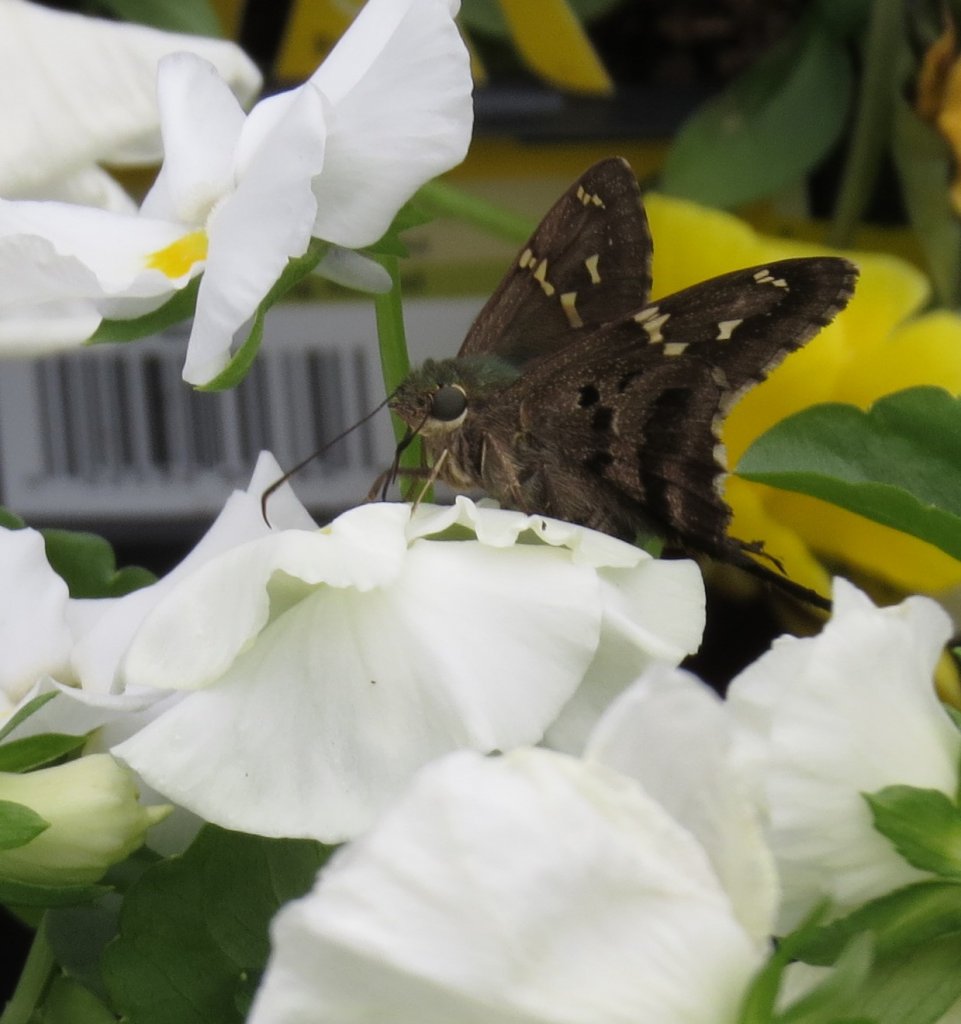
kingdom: Animalia
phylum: Arthropoda
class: Insecta
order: Lepidoptera
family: Hesperiidae
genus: Urbanus
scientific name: Urbanus proteus
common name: Long-tailed Skipper
